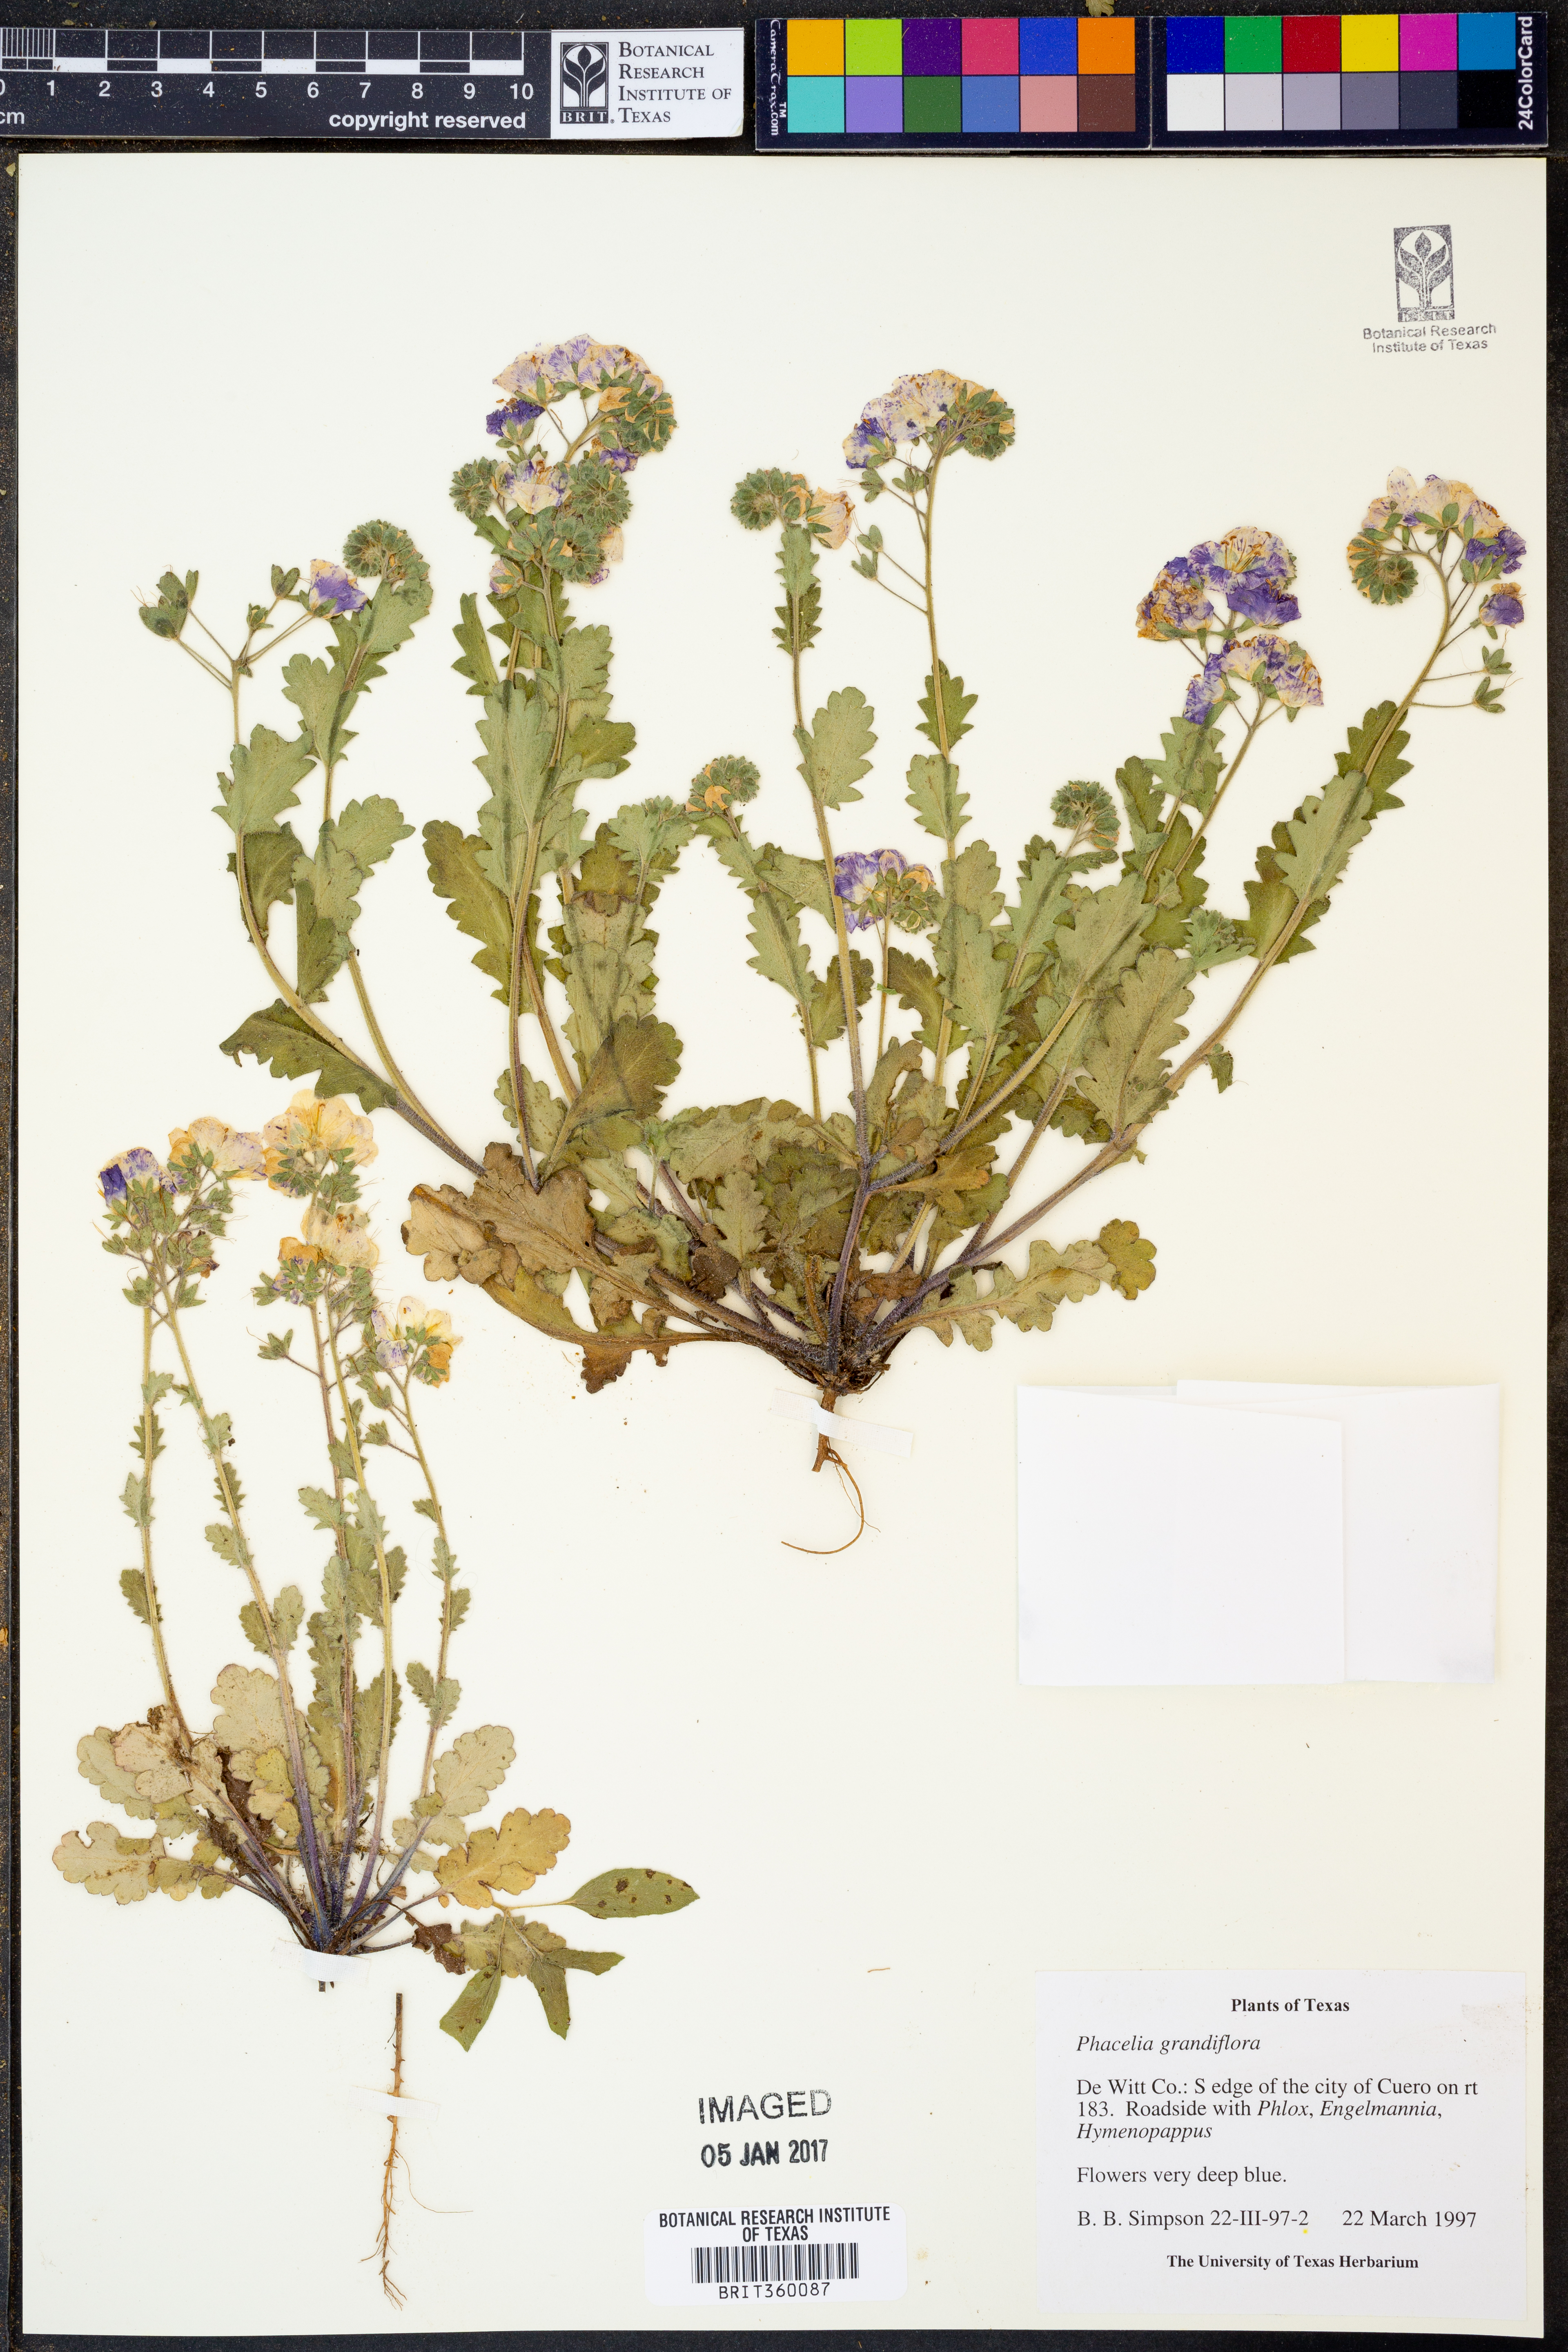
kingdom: Plantae
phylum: Tracheophyta
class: Magnoliopsida
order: Boraginales
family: Hydrophyllaceae
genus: Phacelia
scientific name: Phacelia grandiflora
